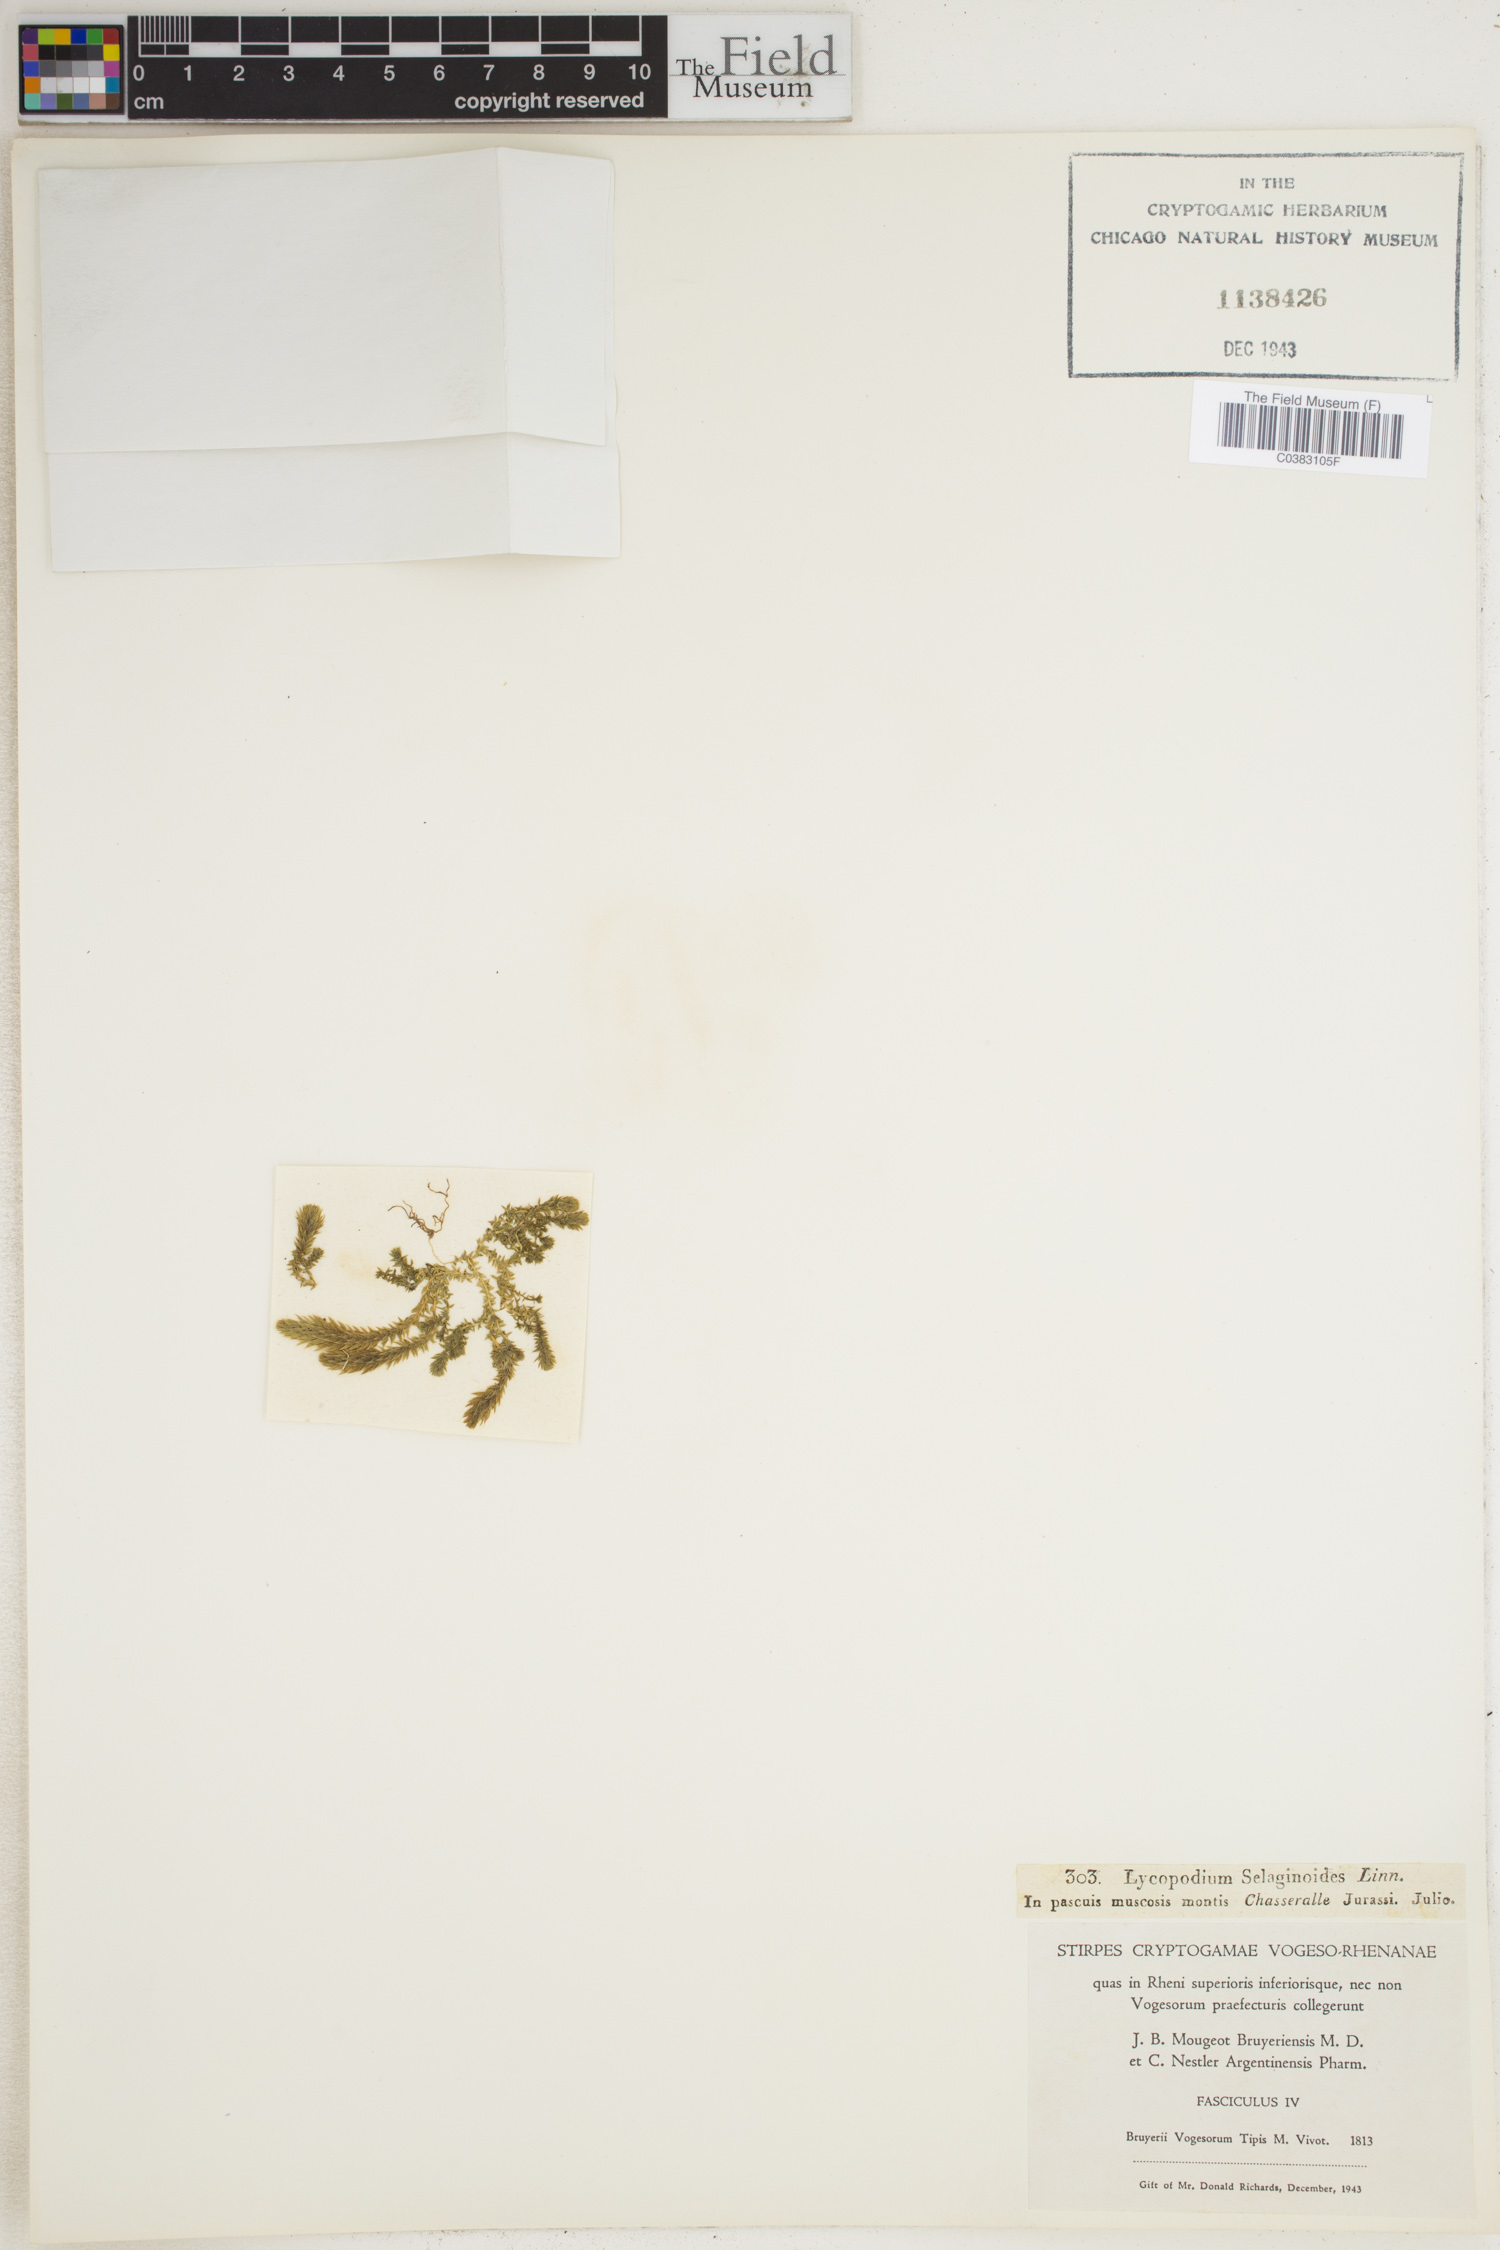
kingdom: Plantae
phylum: Tracheophyta
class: Lycopodiopsida
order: Selaginellales
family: Selaginellaceae
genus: Selaginella
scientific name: Selaginella selaginoides
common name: Prickly mountain-moss
